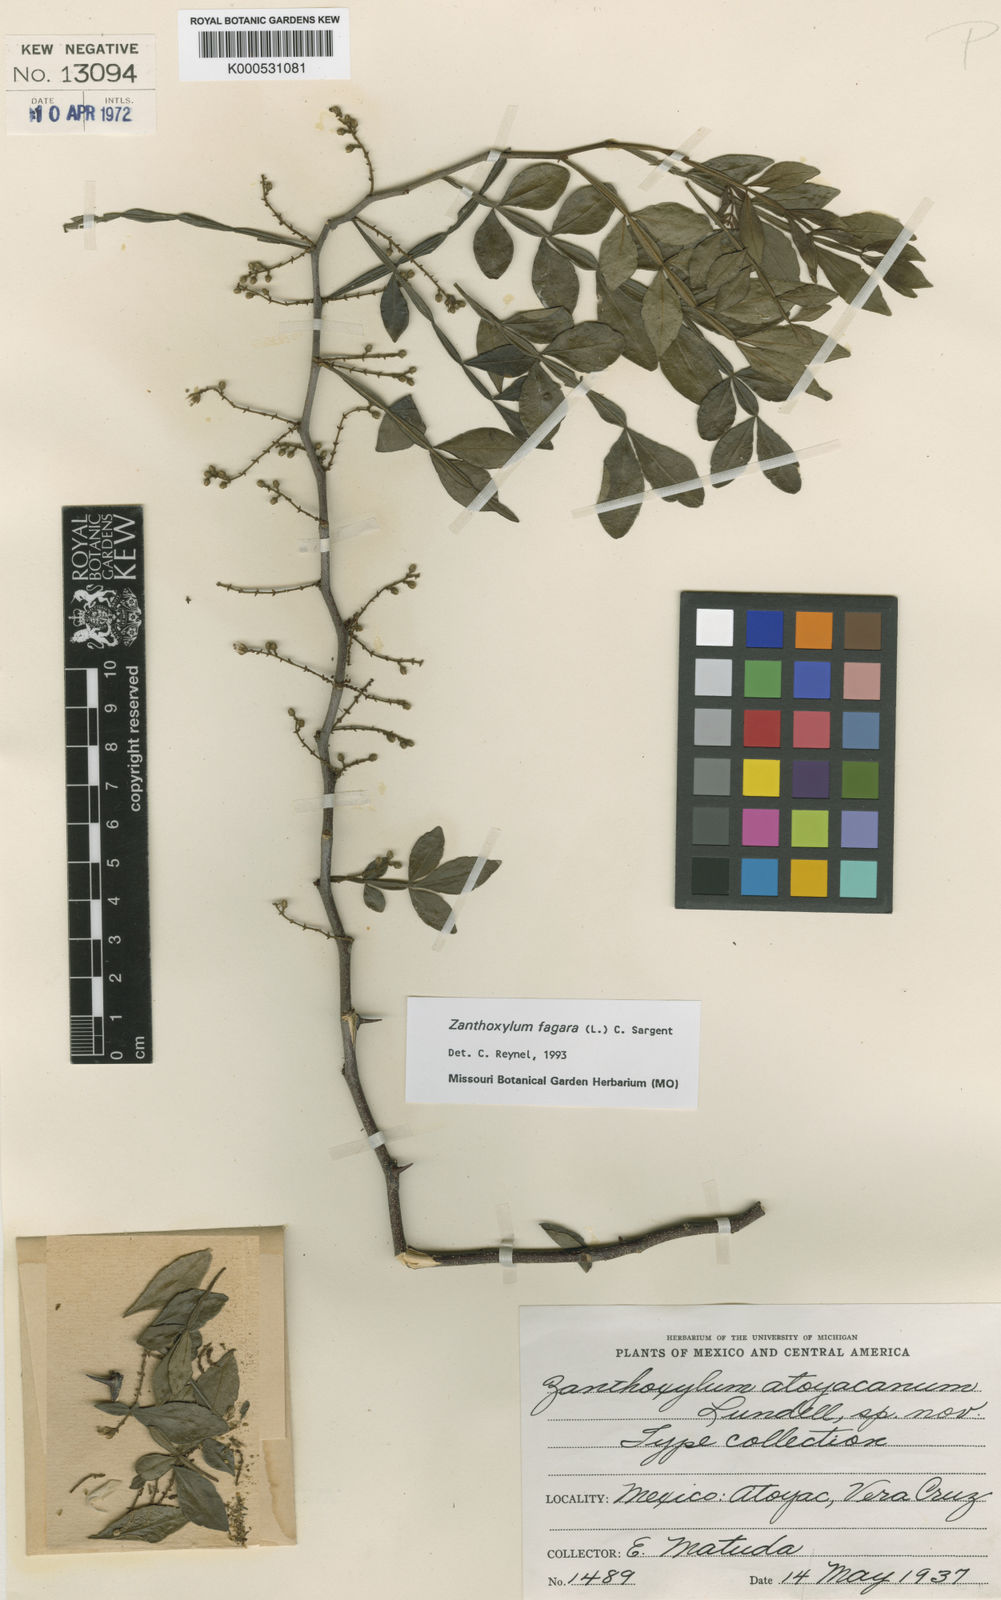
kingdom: Plantae
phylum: Tracheophyta
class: Magnoliopsida
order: Sapindales
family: Rutaceae
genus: Zanthoxylum
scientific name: Zanthoxylum fagara
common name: Lime prickly-ash
